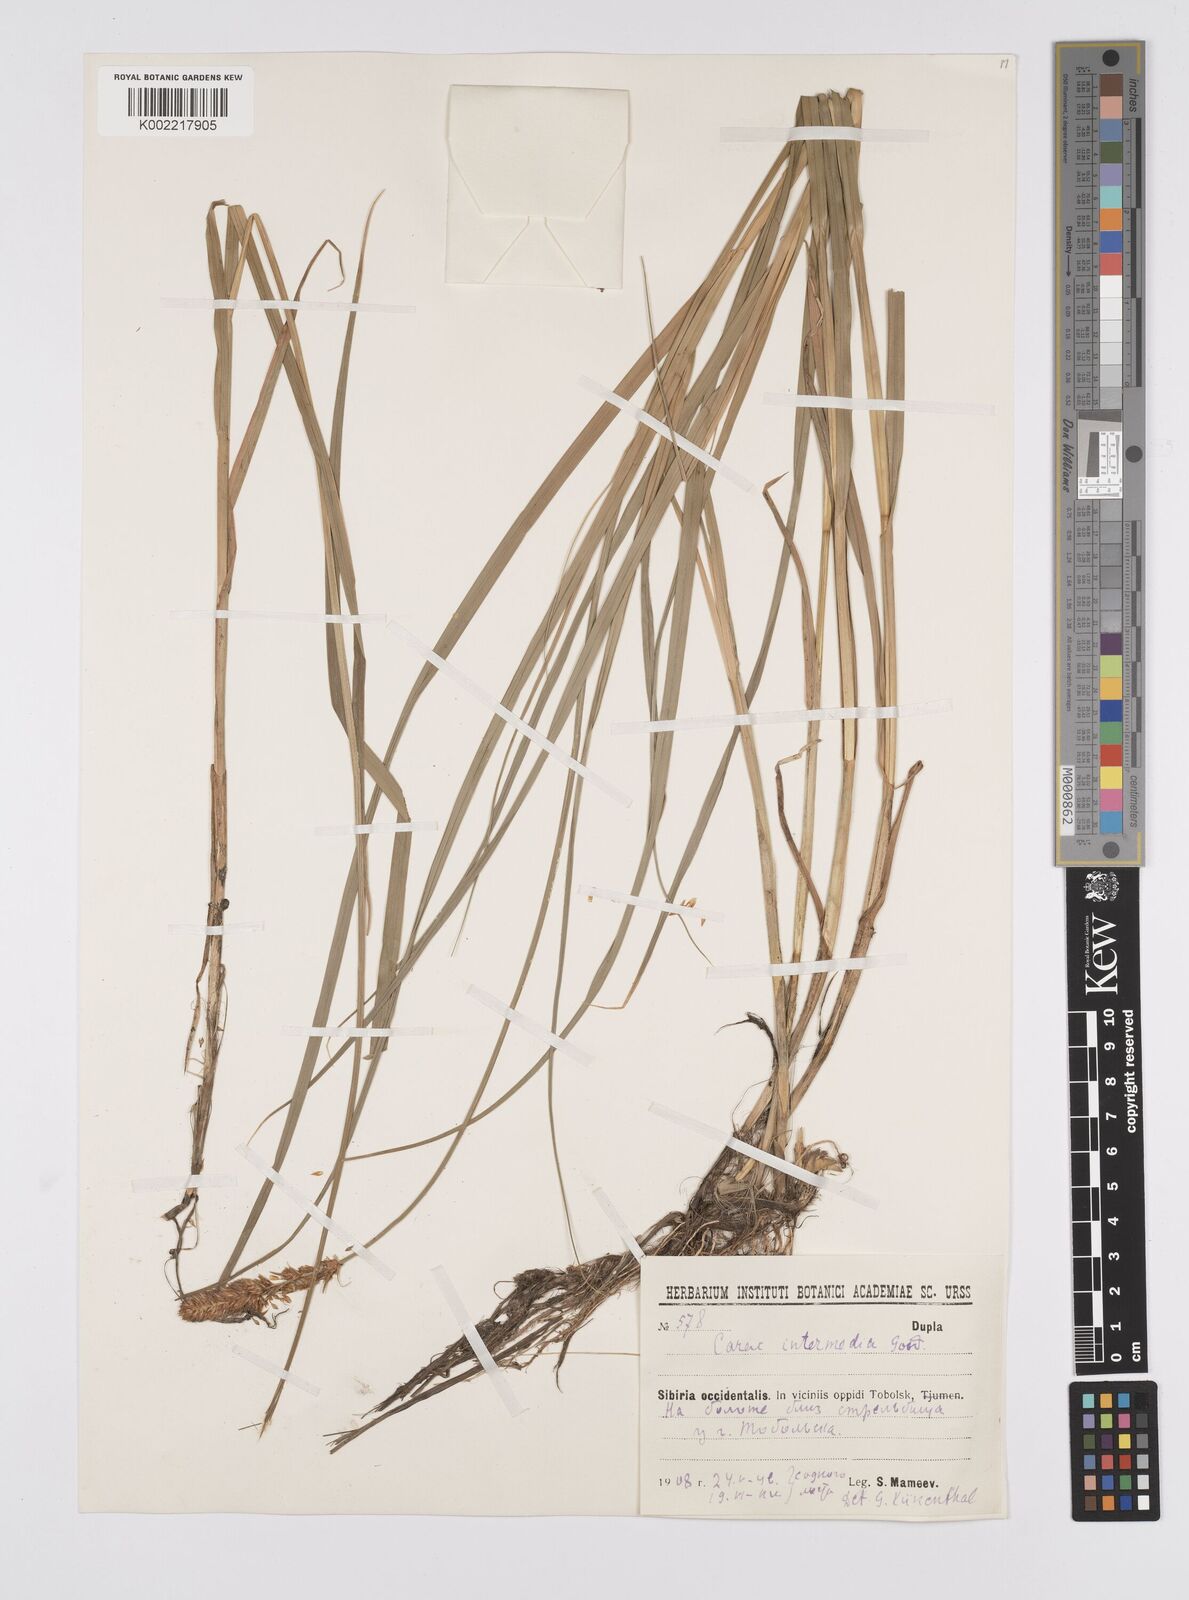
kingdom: Plantae
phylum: Tracheophyta
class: Liliopsida
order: Poales
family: Cyperaceae
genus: Carex
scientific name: Carex disticha
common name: Brown sedge
